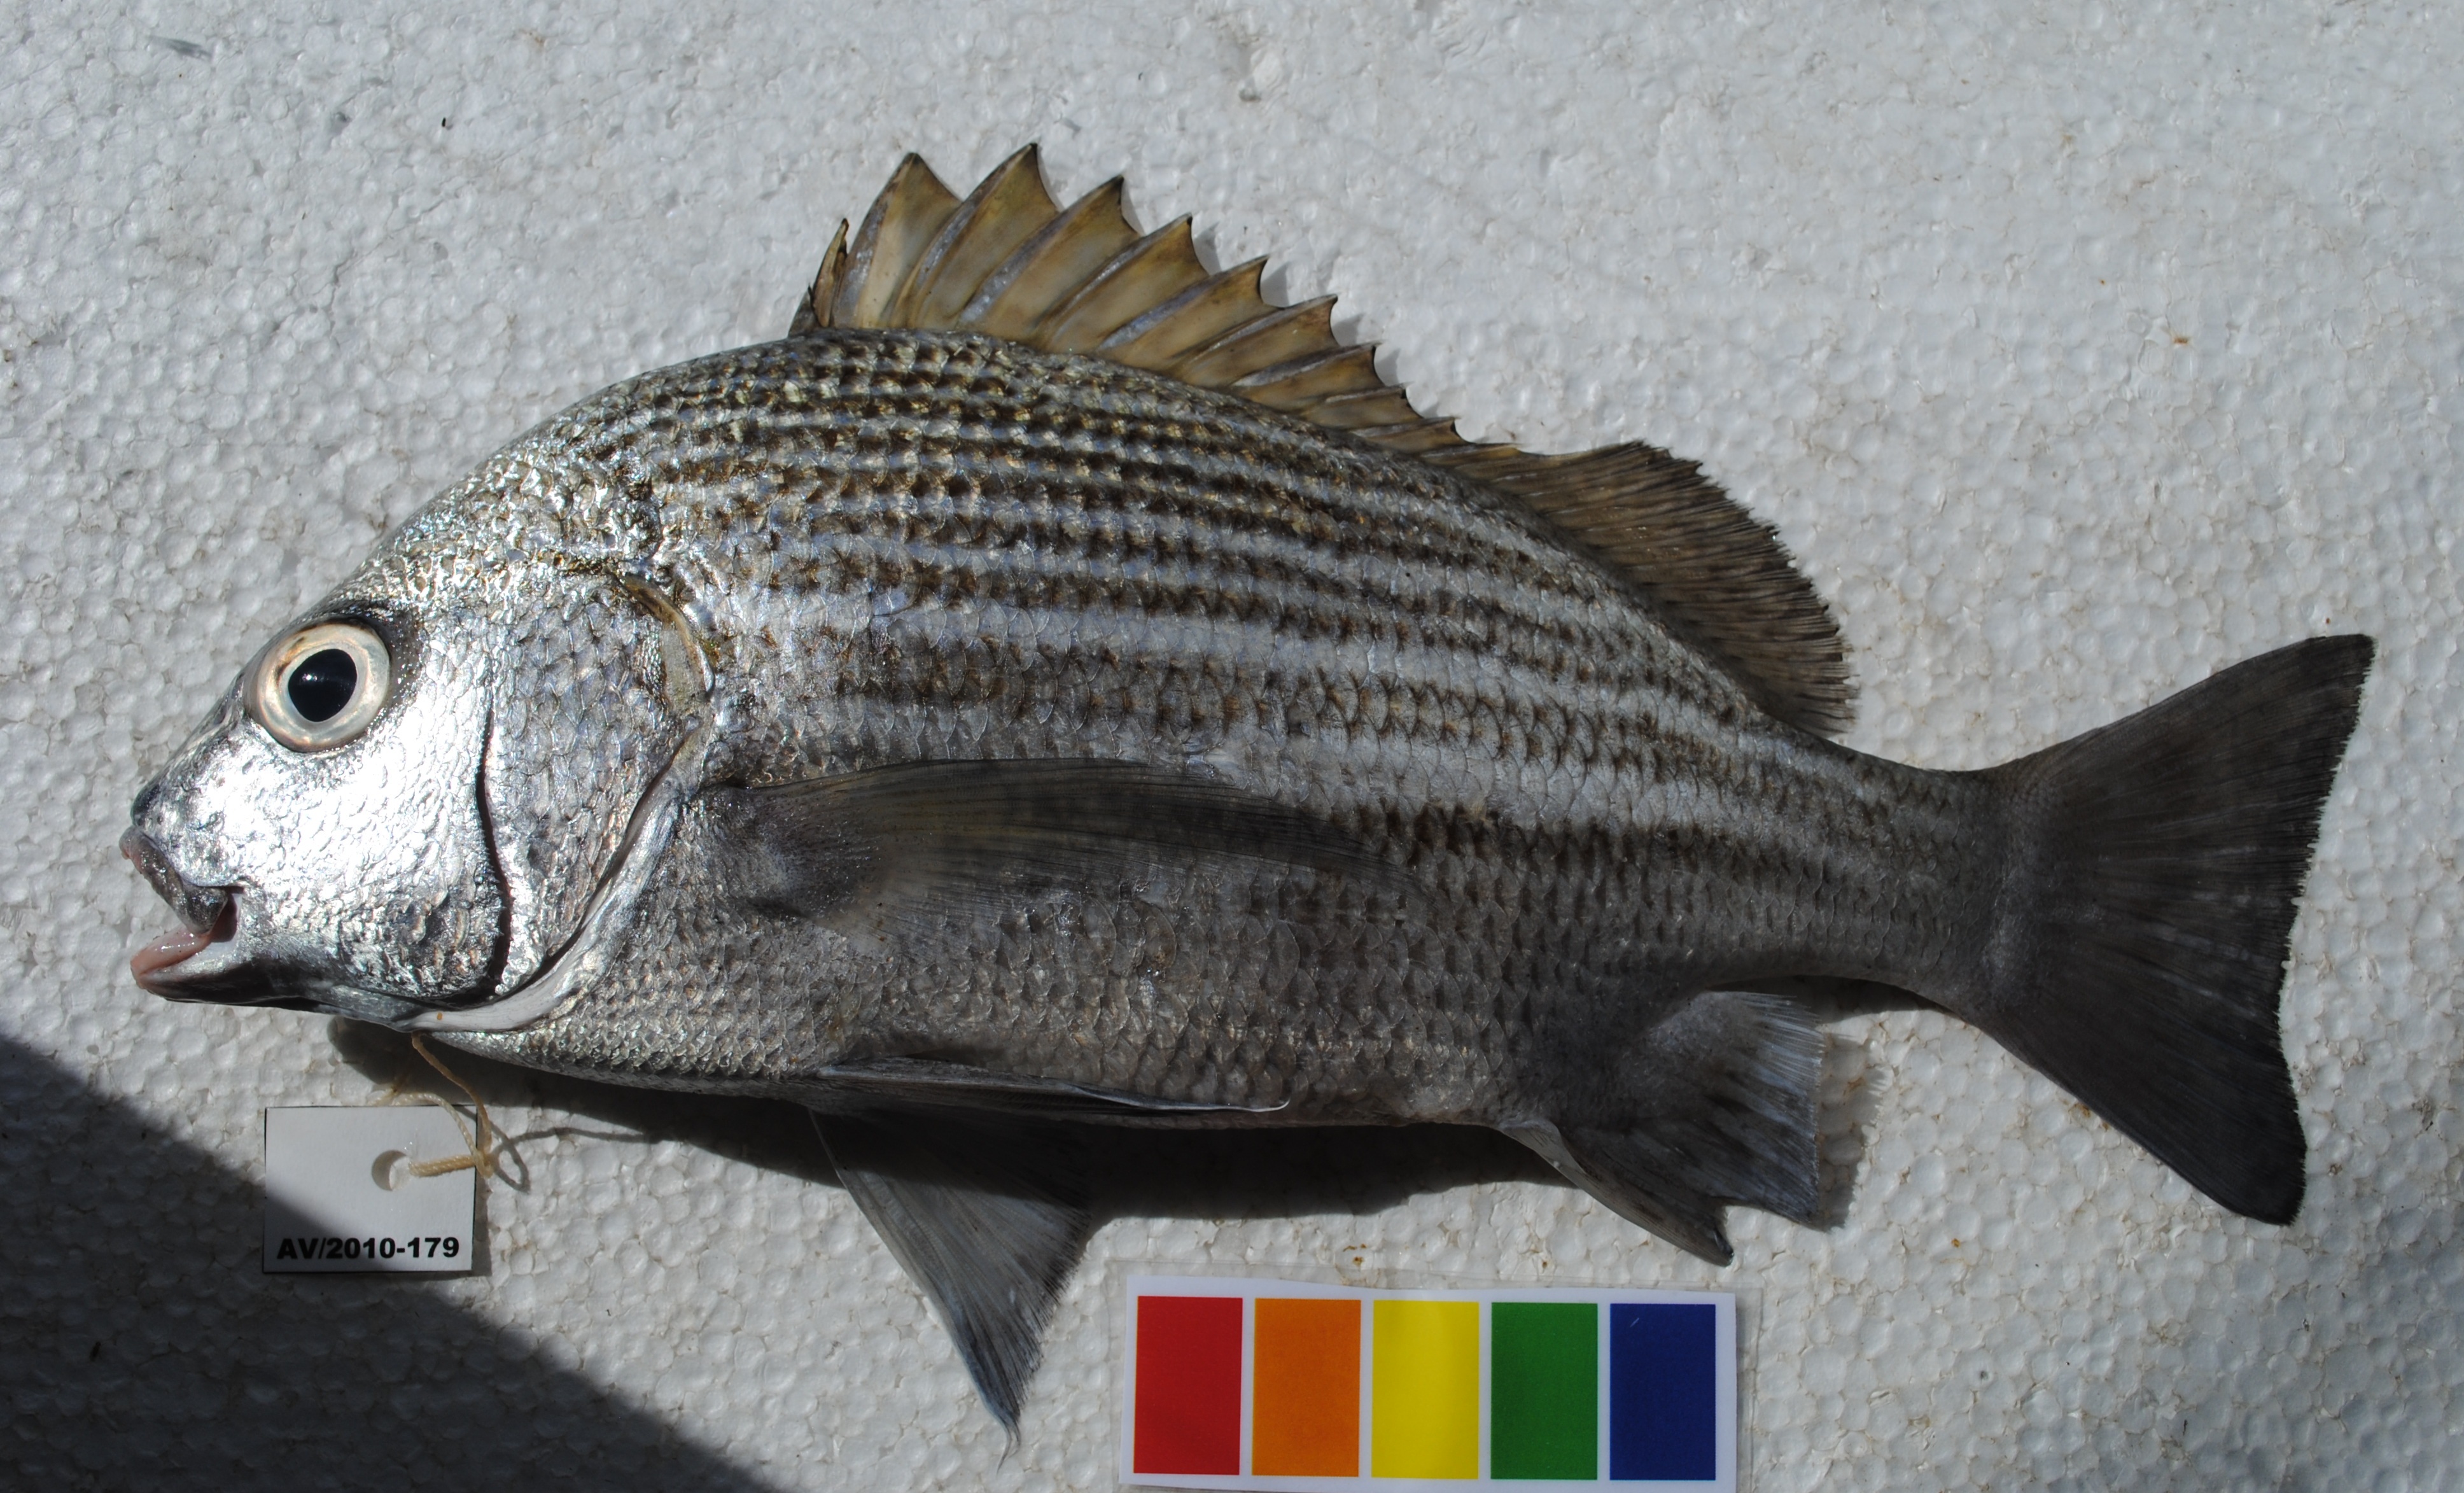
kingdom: Animalia
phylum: Chordata
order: Perciformes
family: Haemulidae
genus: Pomadasys
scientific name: Pomadasys furcatus
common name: Banded grunter
